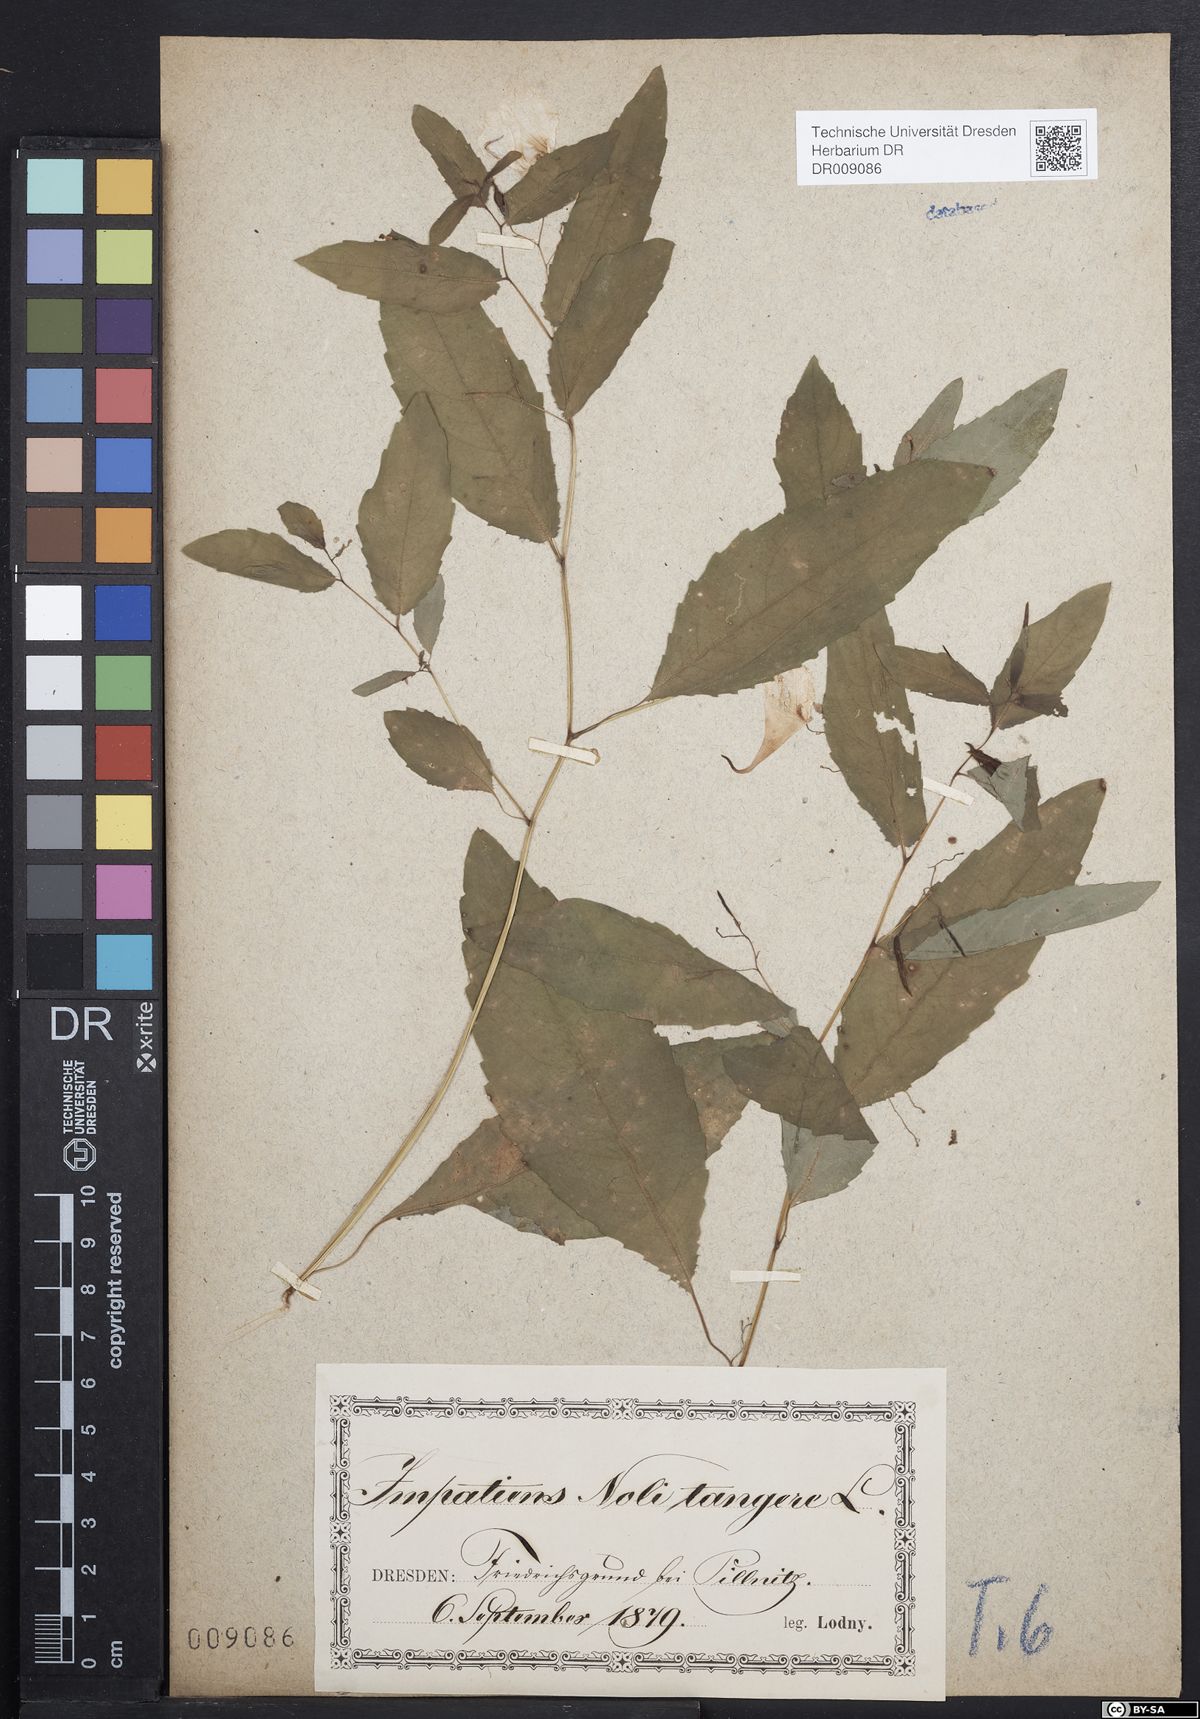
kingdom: Plantae
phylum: Tracheophyta
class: Magnoliopsida
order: Ericales
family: Balsaminaceae
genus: Impatiens
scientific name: Impatiens noli-tangere
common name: Touch-me-not balsam
